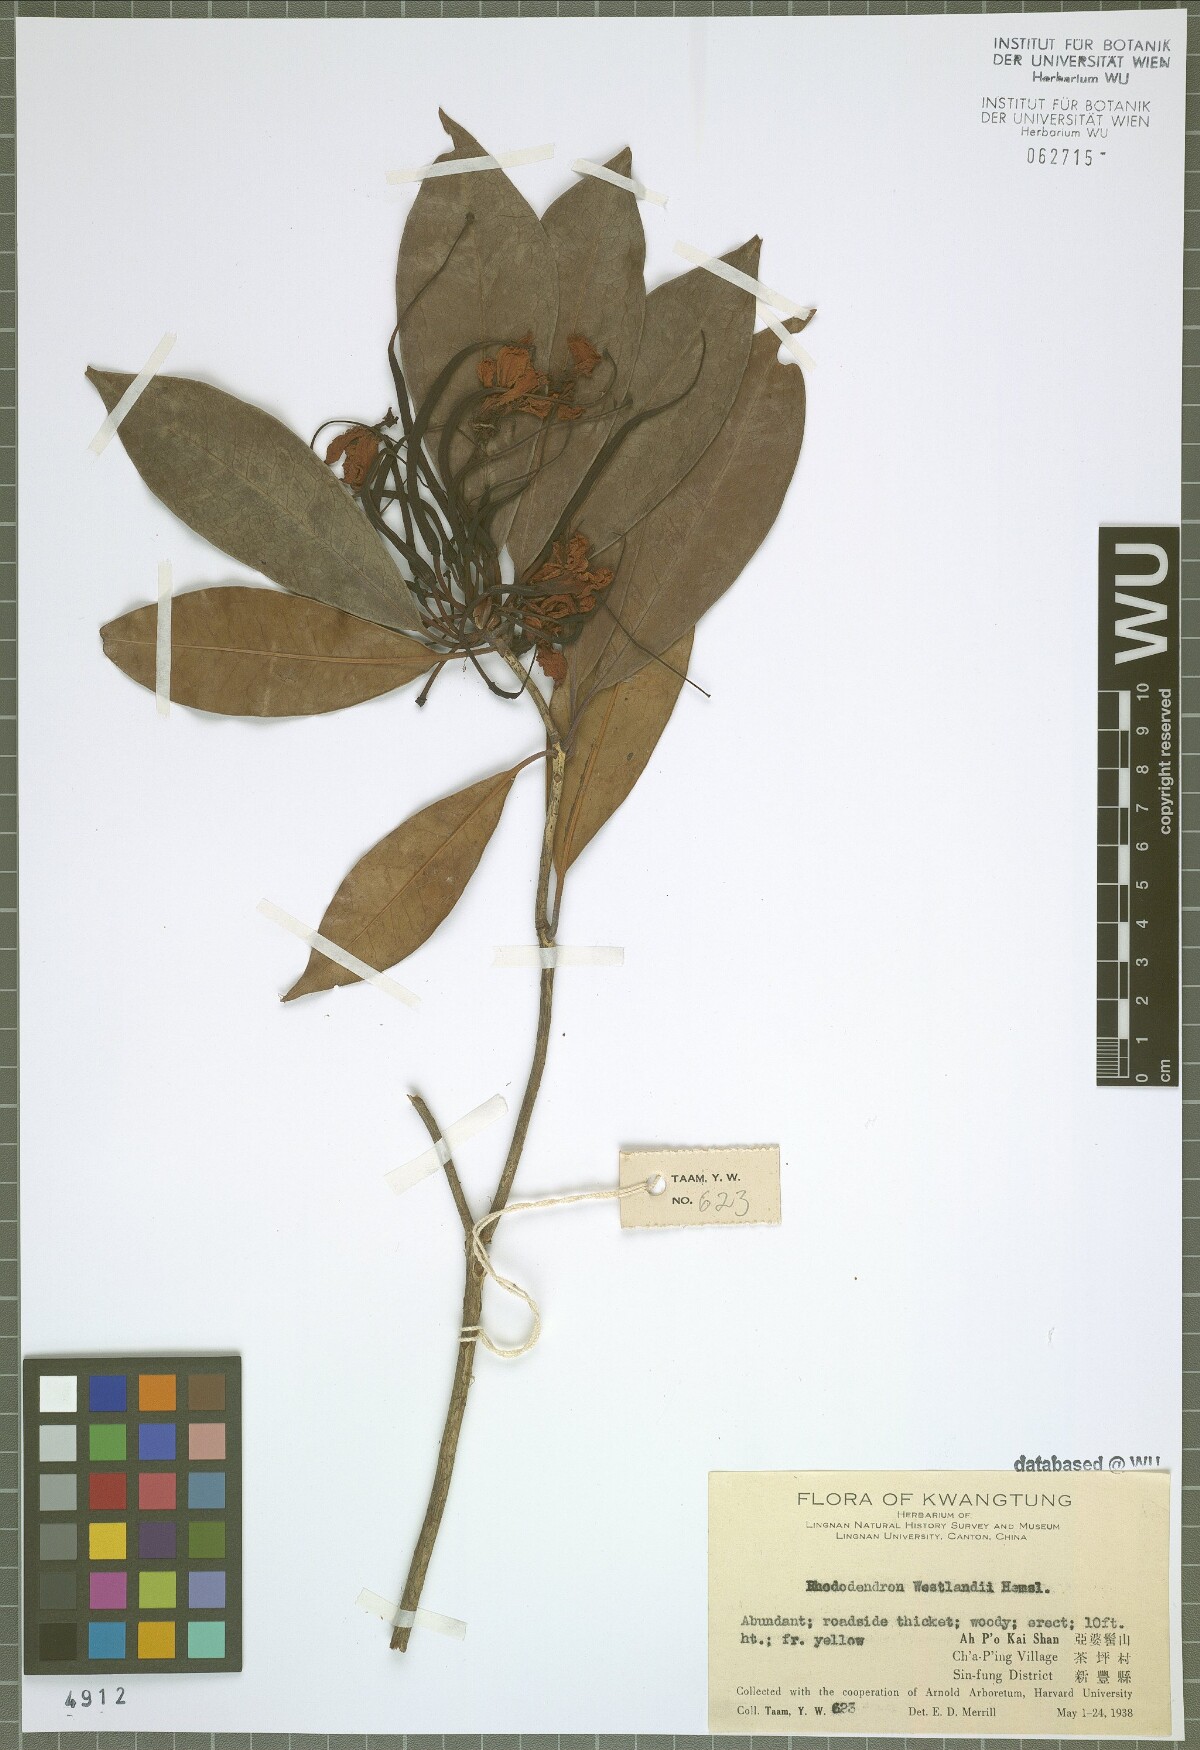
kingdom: Plantae
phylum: Tracheophyta
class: Magnoliopsida
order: Ericales
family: Ericaceae
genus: Rhododendron
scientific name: Rhododendron westlandii
